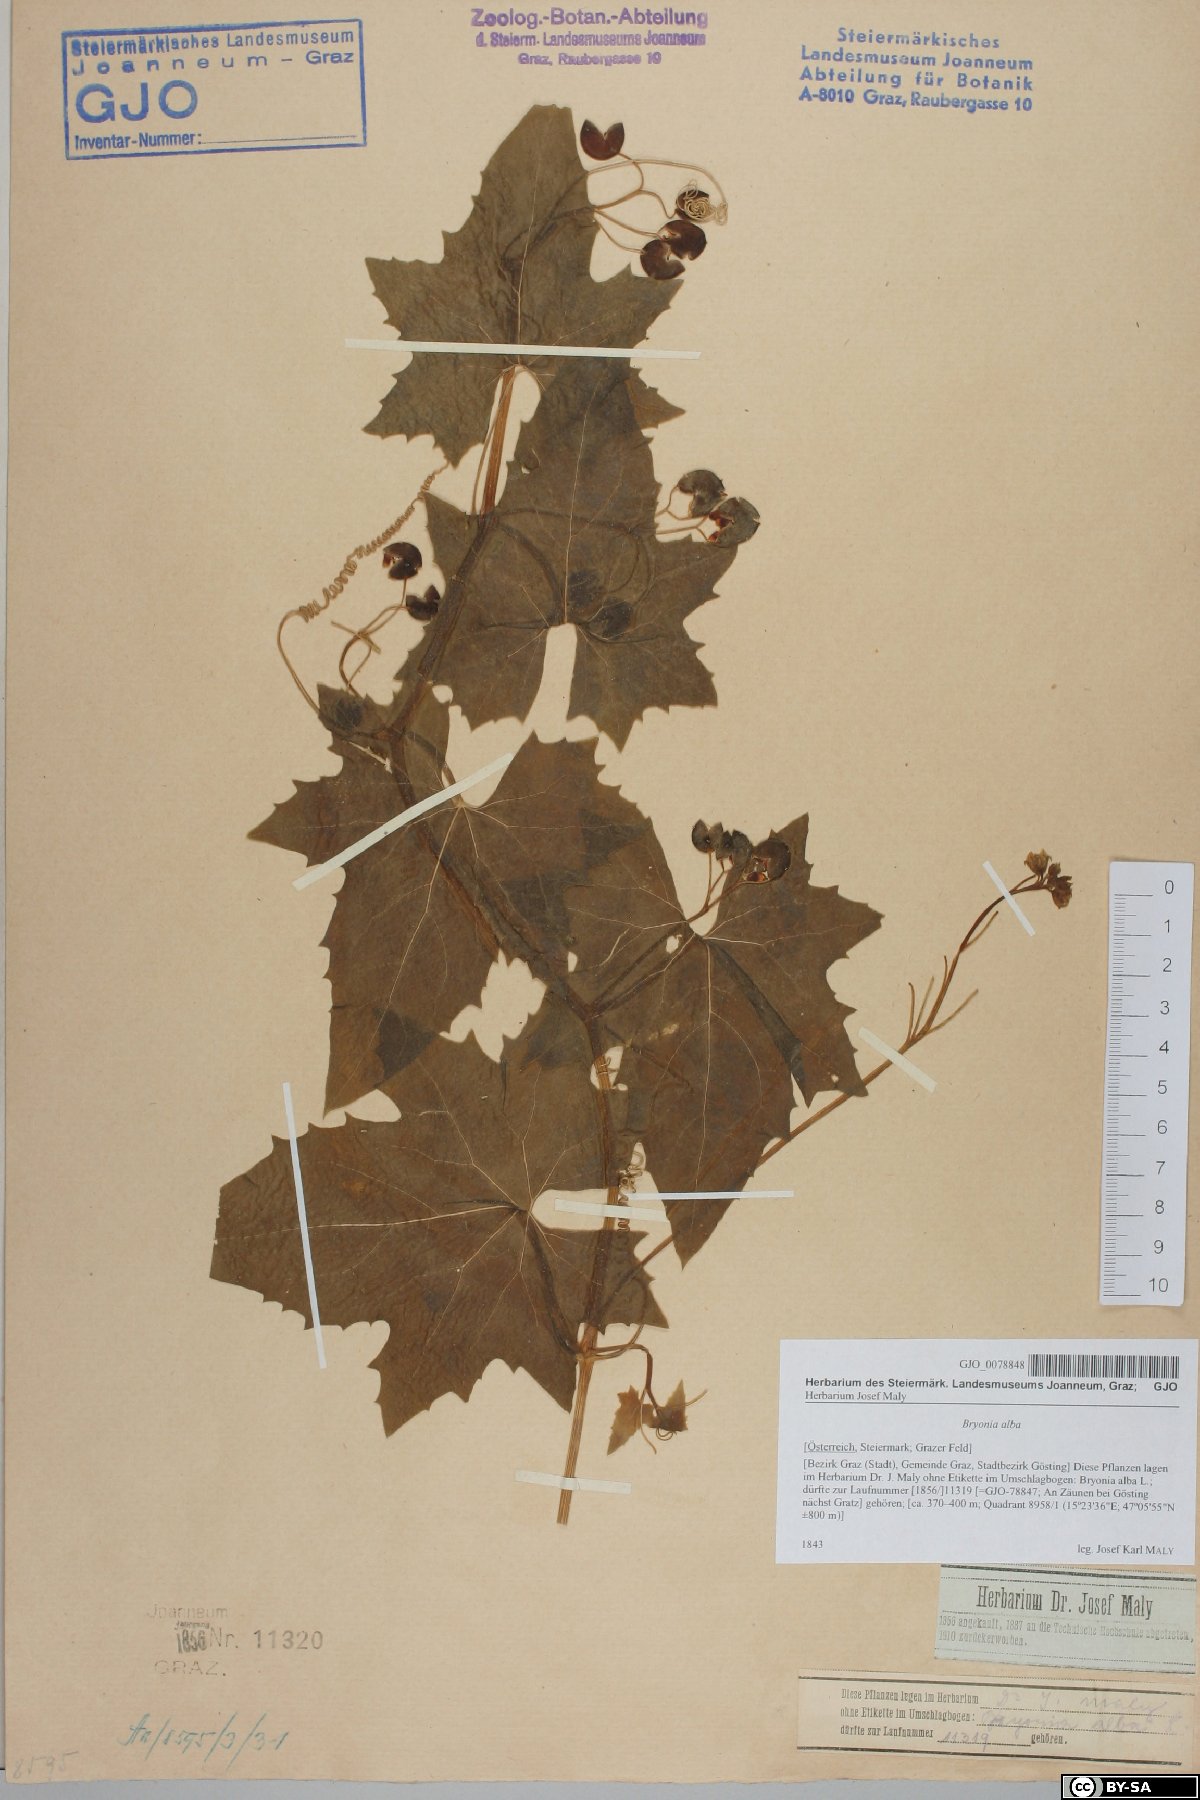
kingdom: Plantae
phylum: Tracheophyta
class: Magnoliopsida
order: Cucurbitales
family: Cucurbitaceae
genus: Bryonia
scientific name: Bryonia alba
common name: White bryony
